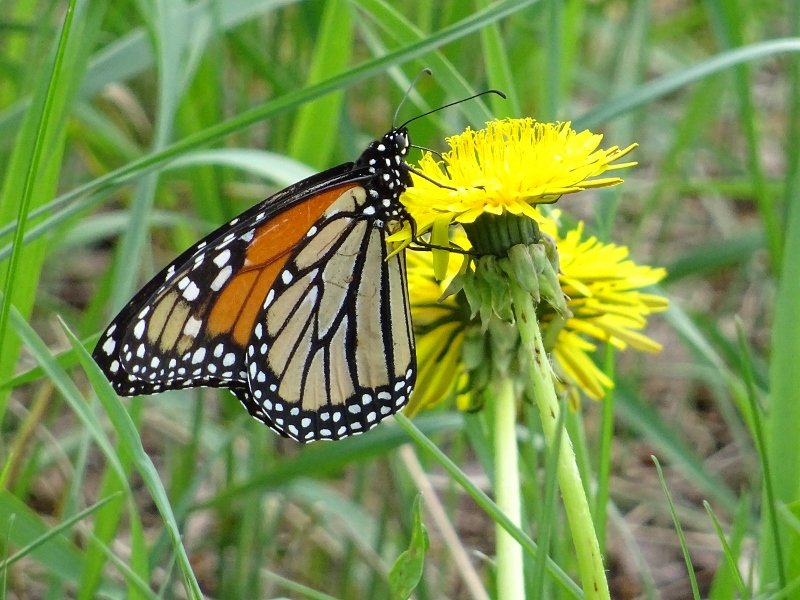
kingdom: Animalia
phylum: Arthropoda
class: Insecta
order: Lepidoptera
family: Nymphalidae
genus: Danaus
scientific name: Danaus plexippus
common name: Monarch
